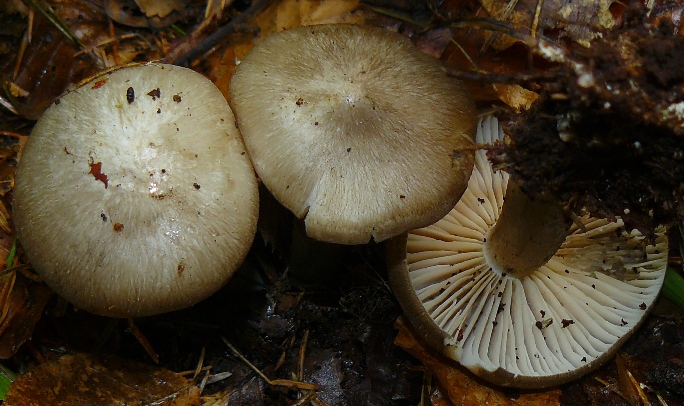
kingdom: Fungi
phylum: Basidiomycota
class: Agaricomycetes
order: Agaricales
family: Tricholomataceae
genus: Megacollybia
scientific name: Megacollybia platyphylla
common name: bredbladet væbnerhat
